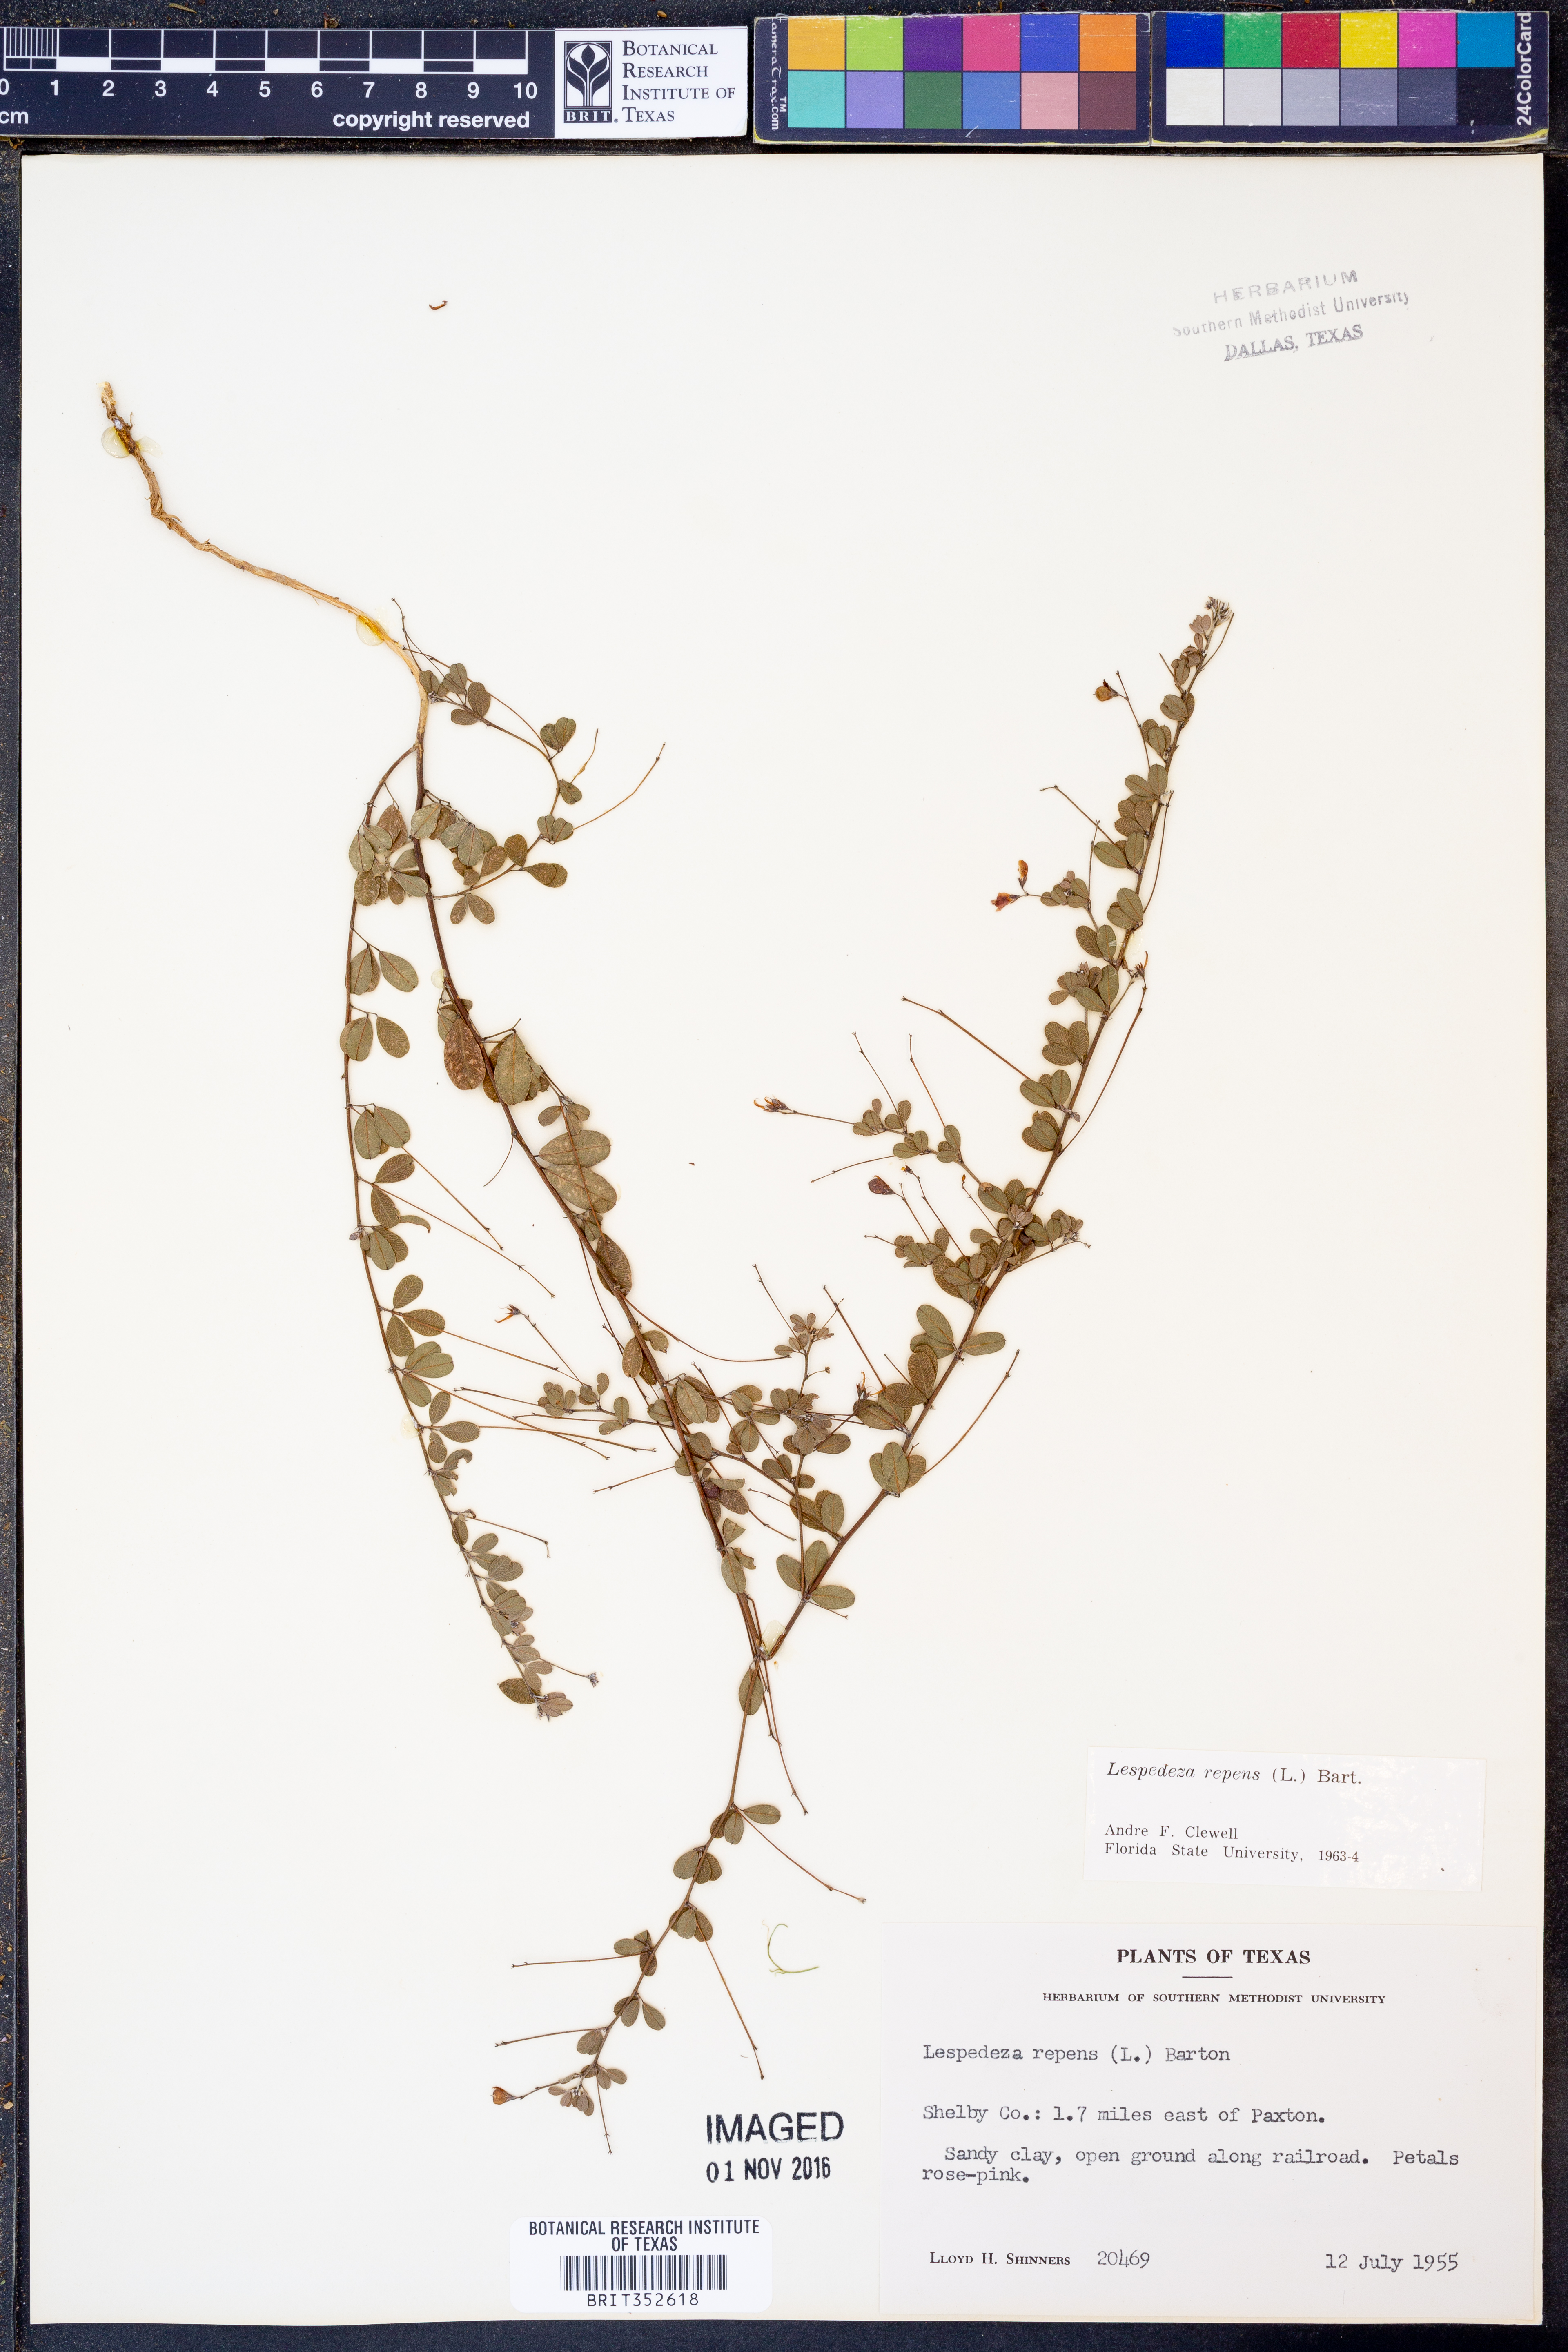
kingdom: Plantae
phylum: Tracheophyta
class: Magnoliopsida
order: Fabales
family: Fabaceae
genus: Lespedeza
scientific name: Lespedeza repens
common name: Creeping bush-clover
